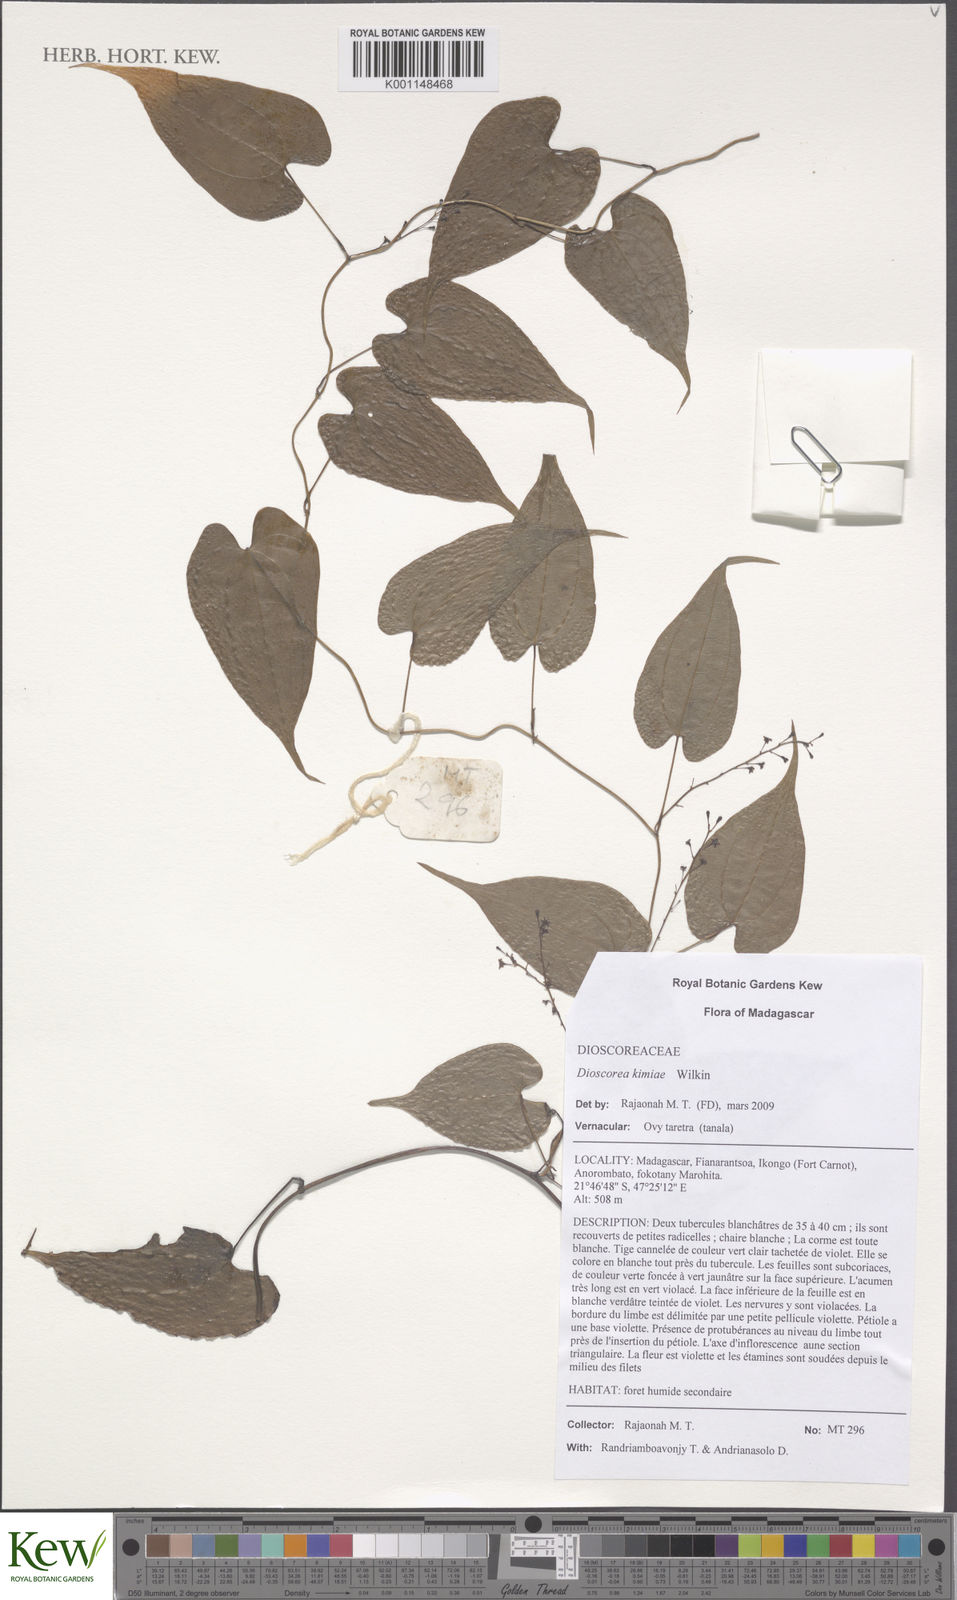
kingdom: Plantae
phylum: Tracheophyta
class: Liliopsida
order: Dioscoreales
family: Dioscoreaceae
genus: Dioscorea
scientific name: Dioscorea kimiae
